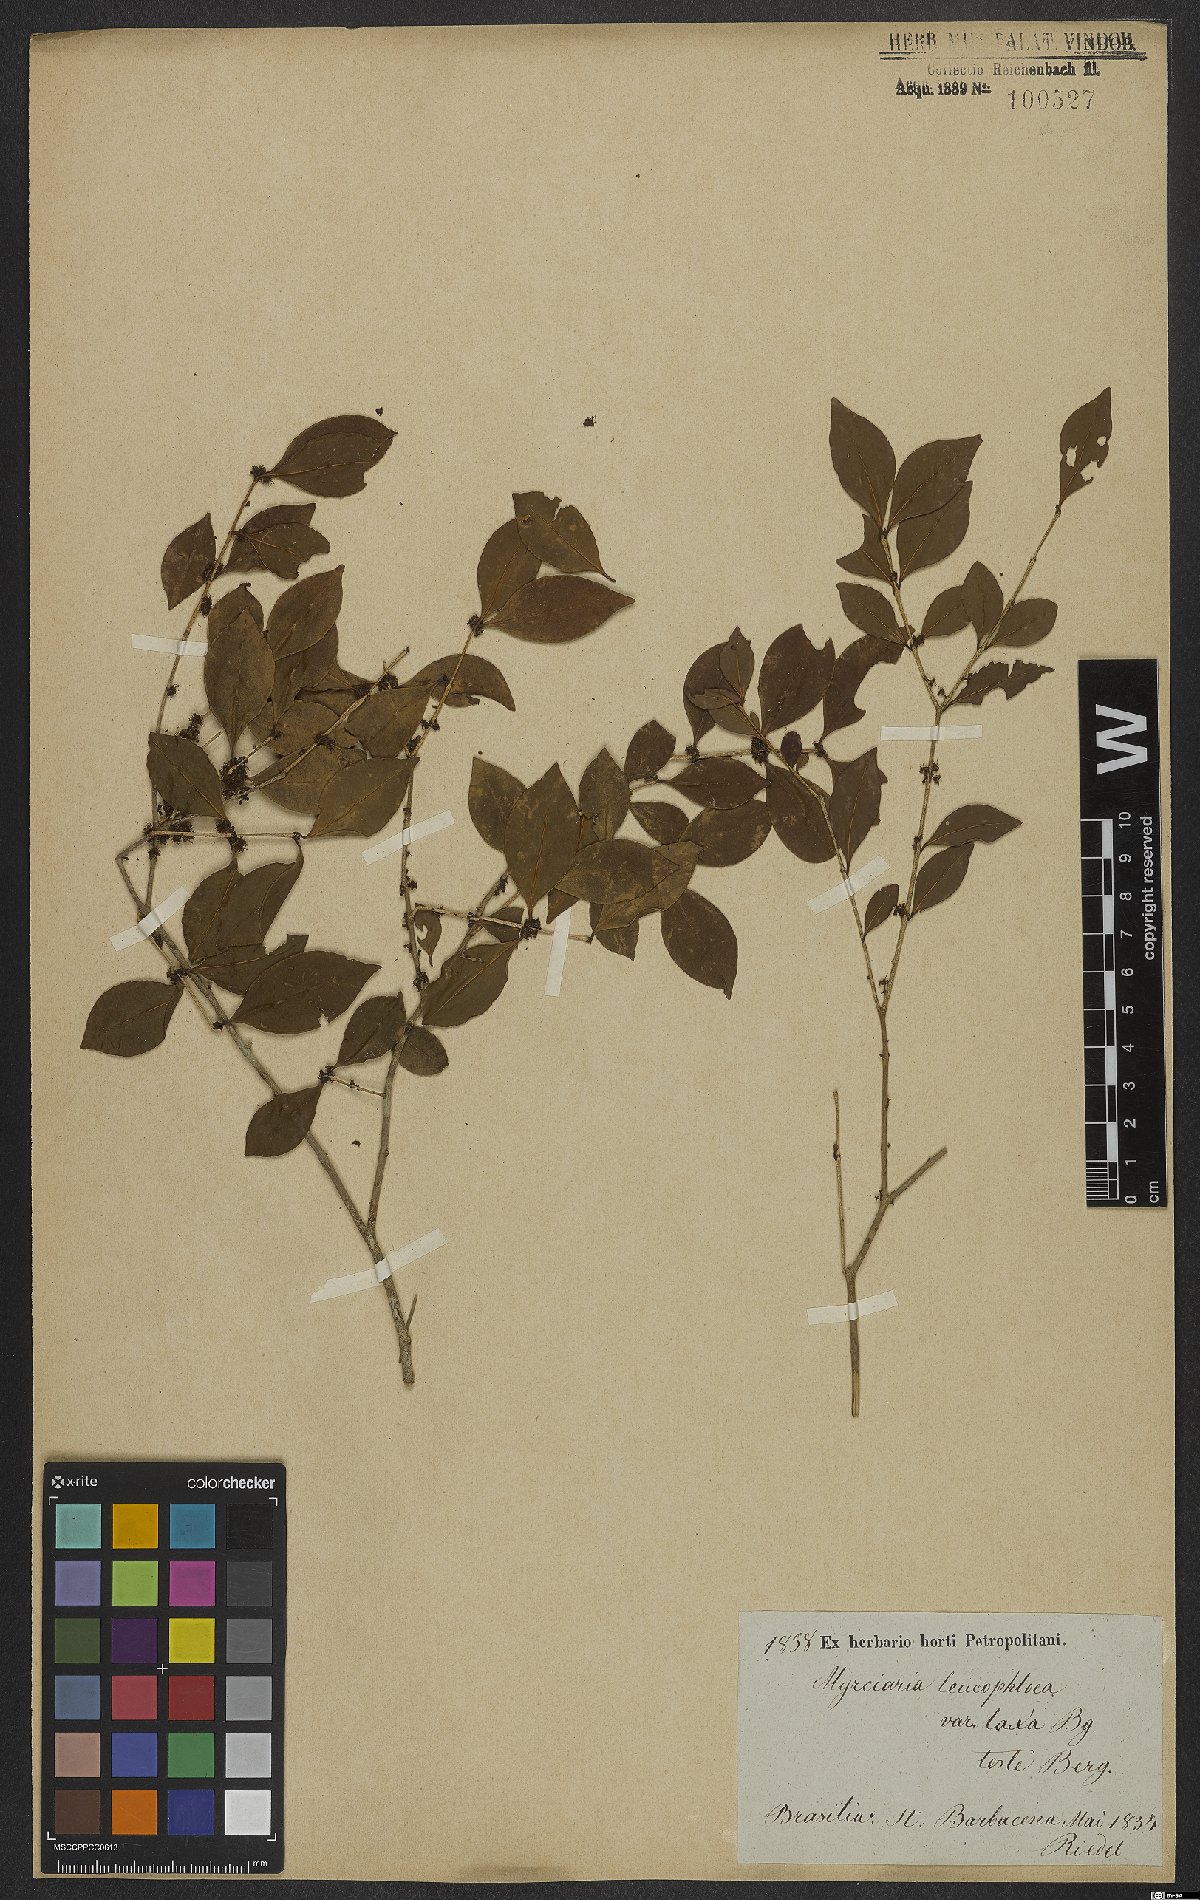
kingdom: Plantae
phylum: Tracheophyta
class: Magnoliopsida
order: Myrtales
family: Myrtaceae
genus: Myrciaria
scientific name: Myrciaria ciliolata
